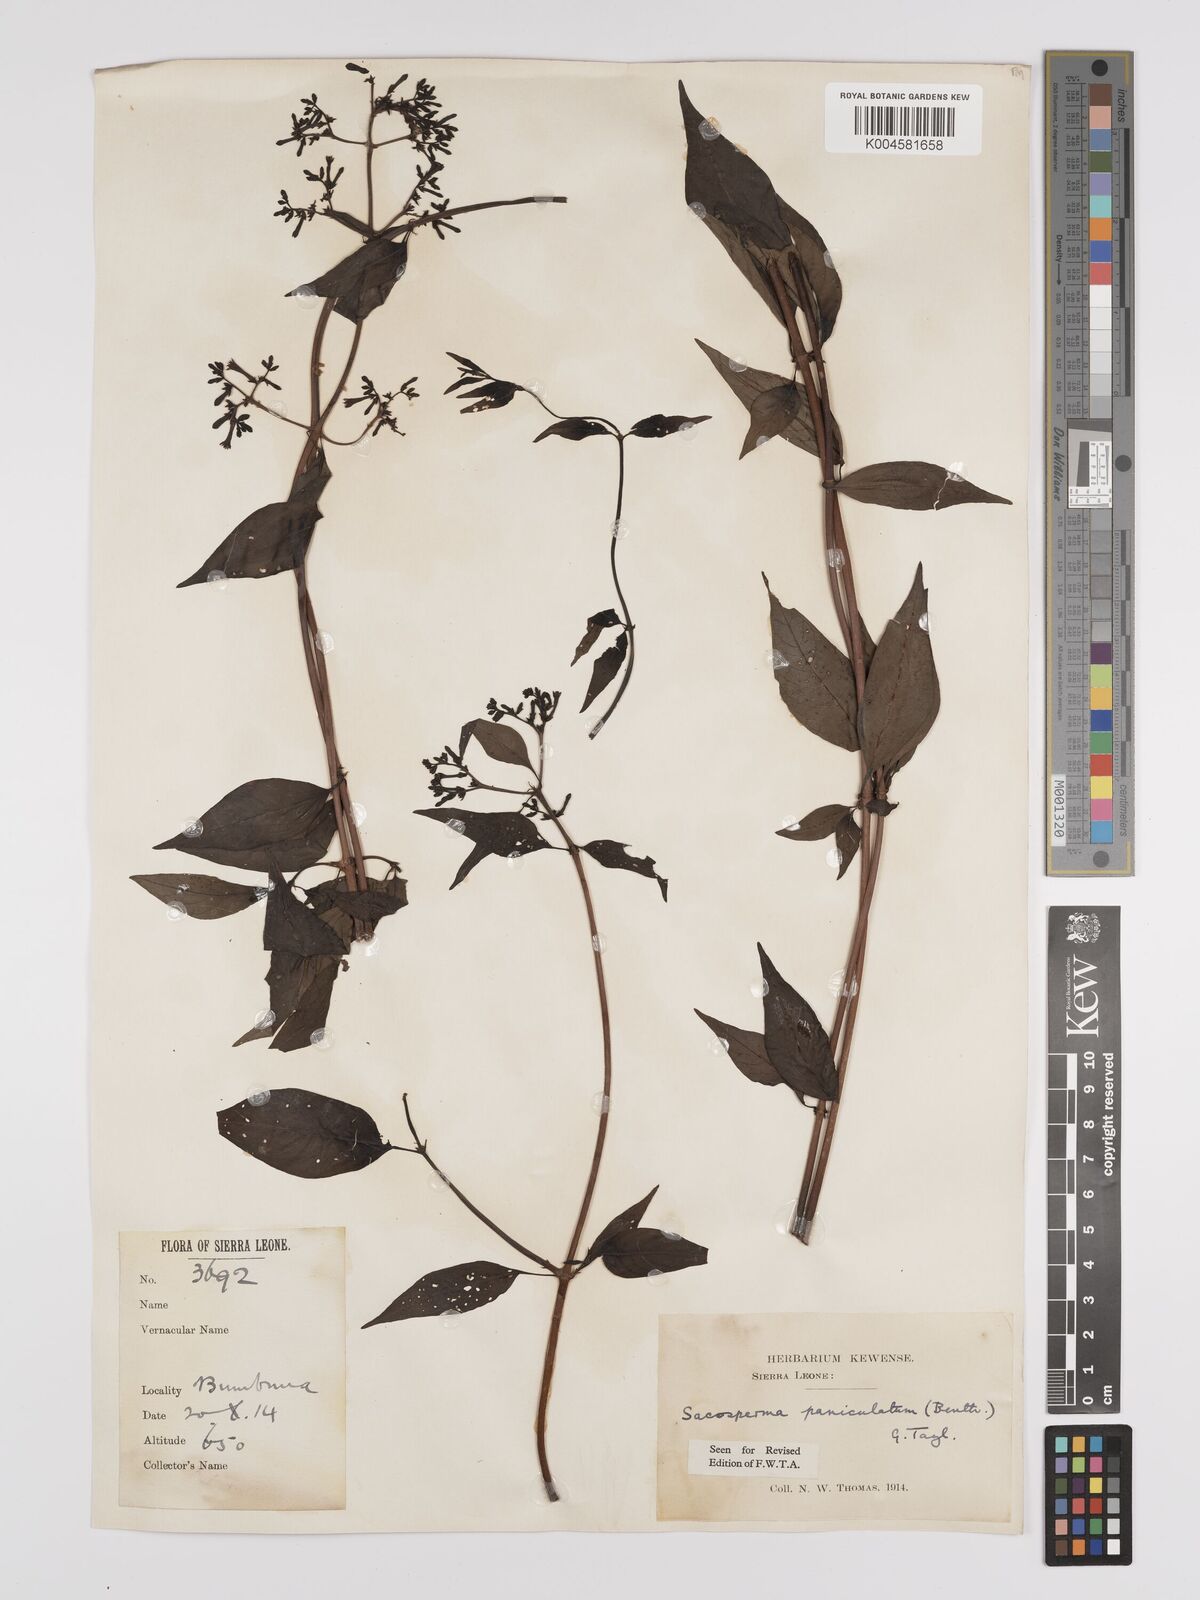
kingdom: Plantae
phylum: Tracheophyta
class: Magnoliopsida
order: Gentianales
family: Rubiaceae
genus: Sacosperma
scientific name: Sacosperma paniculatum
